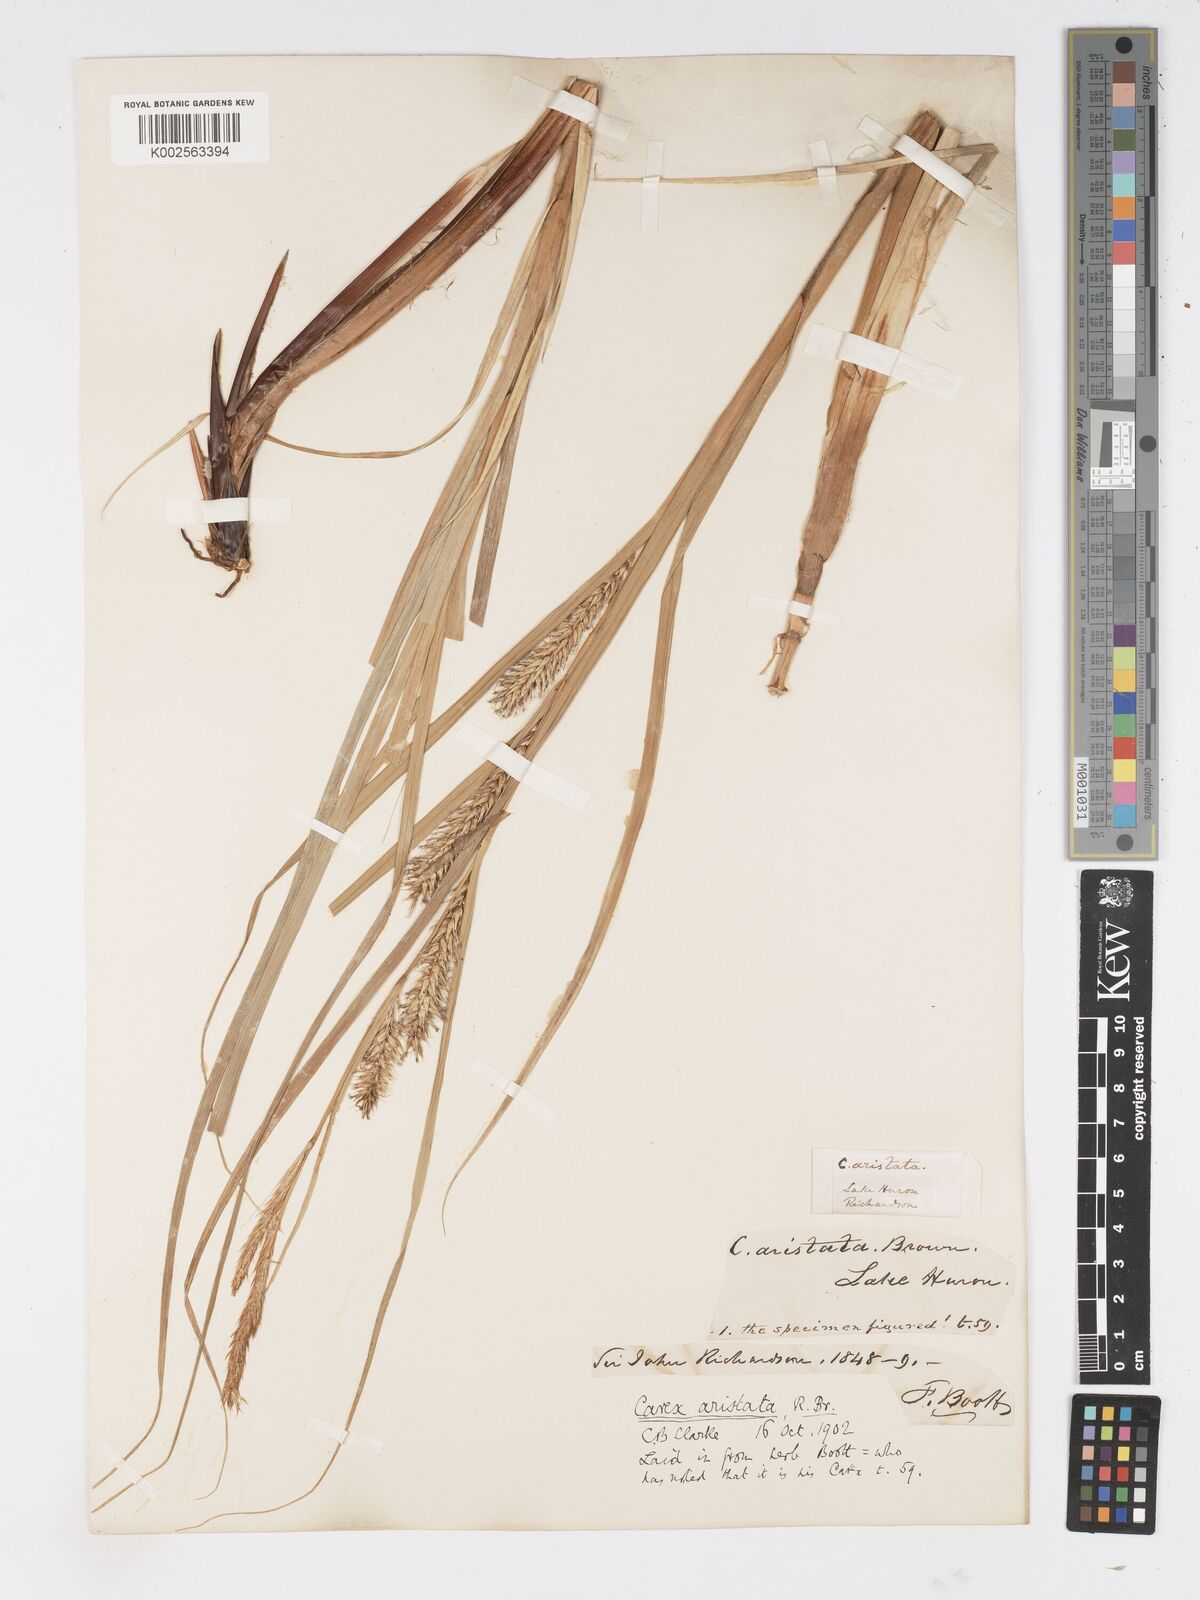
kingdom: Plantae
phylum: Tracheophyta
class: Liliopsida
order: Poales
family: Cyperaceae
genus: Carex
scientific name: Carex atherodes
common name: Wheat sedge
